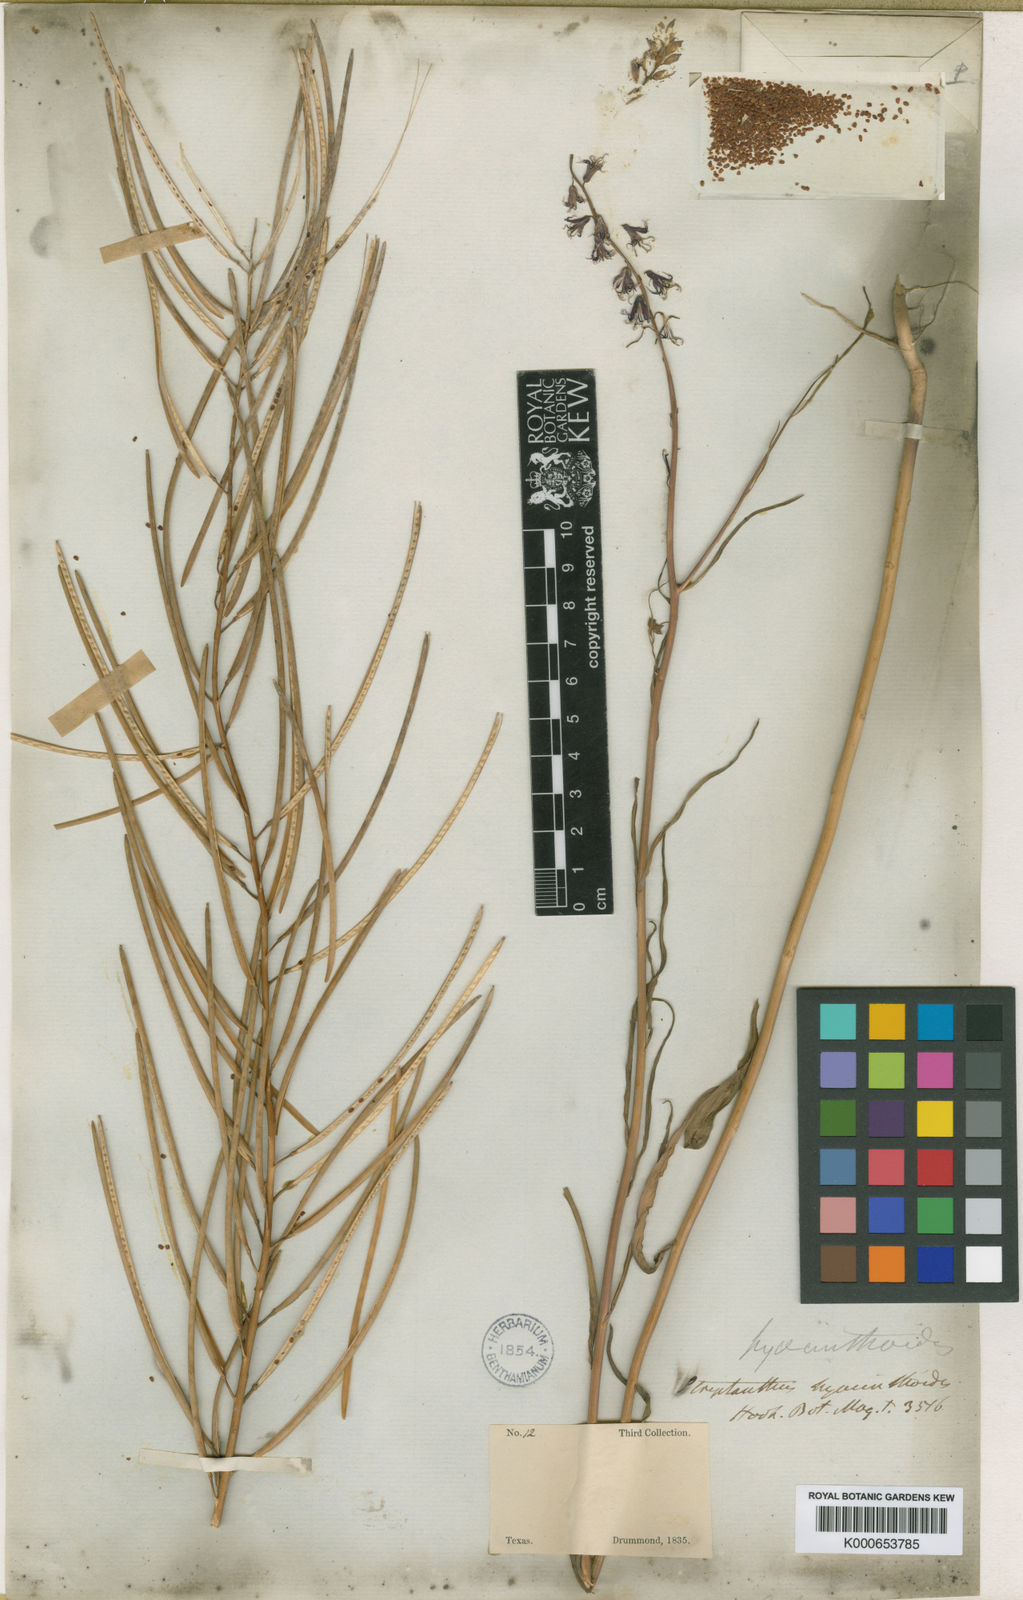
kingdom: Plantae
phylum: Tracheophyta
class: Magnoliopsida
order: Brassicales
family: Brassicaceae
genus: Streptanthus
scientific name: Streptanthus hyacinthoides
